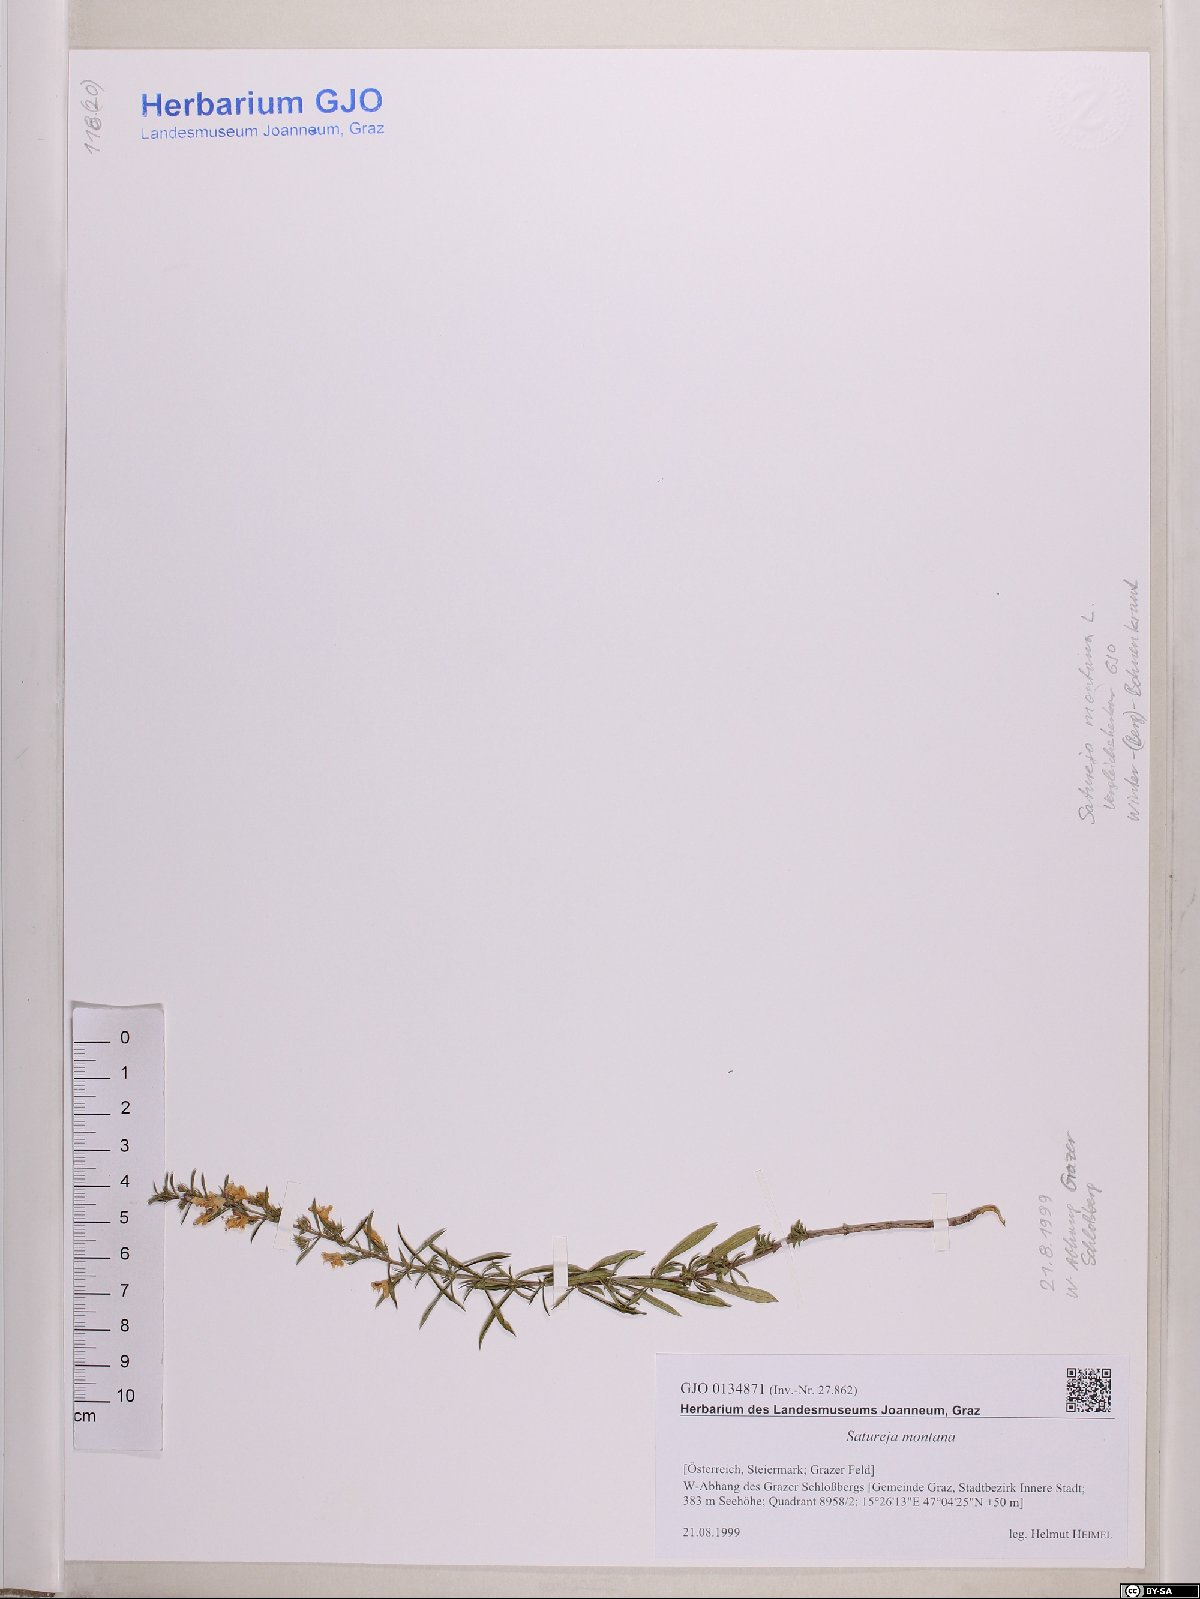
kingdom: Plantae
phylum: Tracheophyta
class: Magnoliopsida
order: Lamiales
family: Lamiaceae
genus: Satureja
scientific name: Satureja montana
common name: Winter savory
